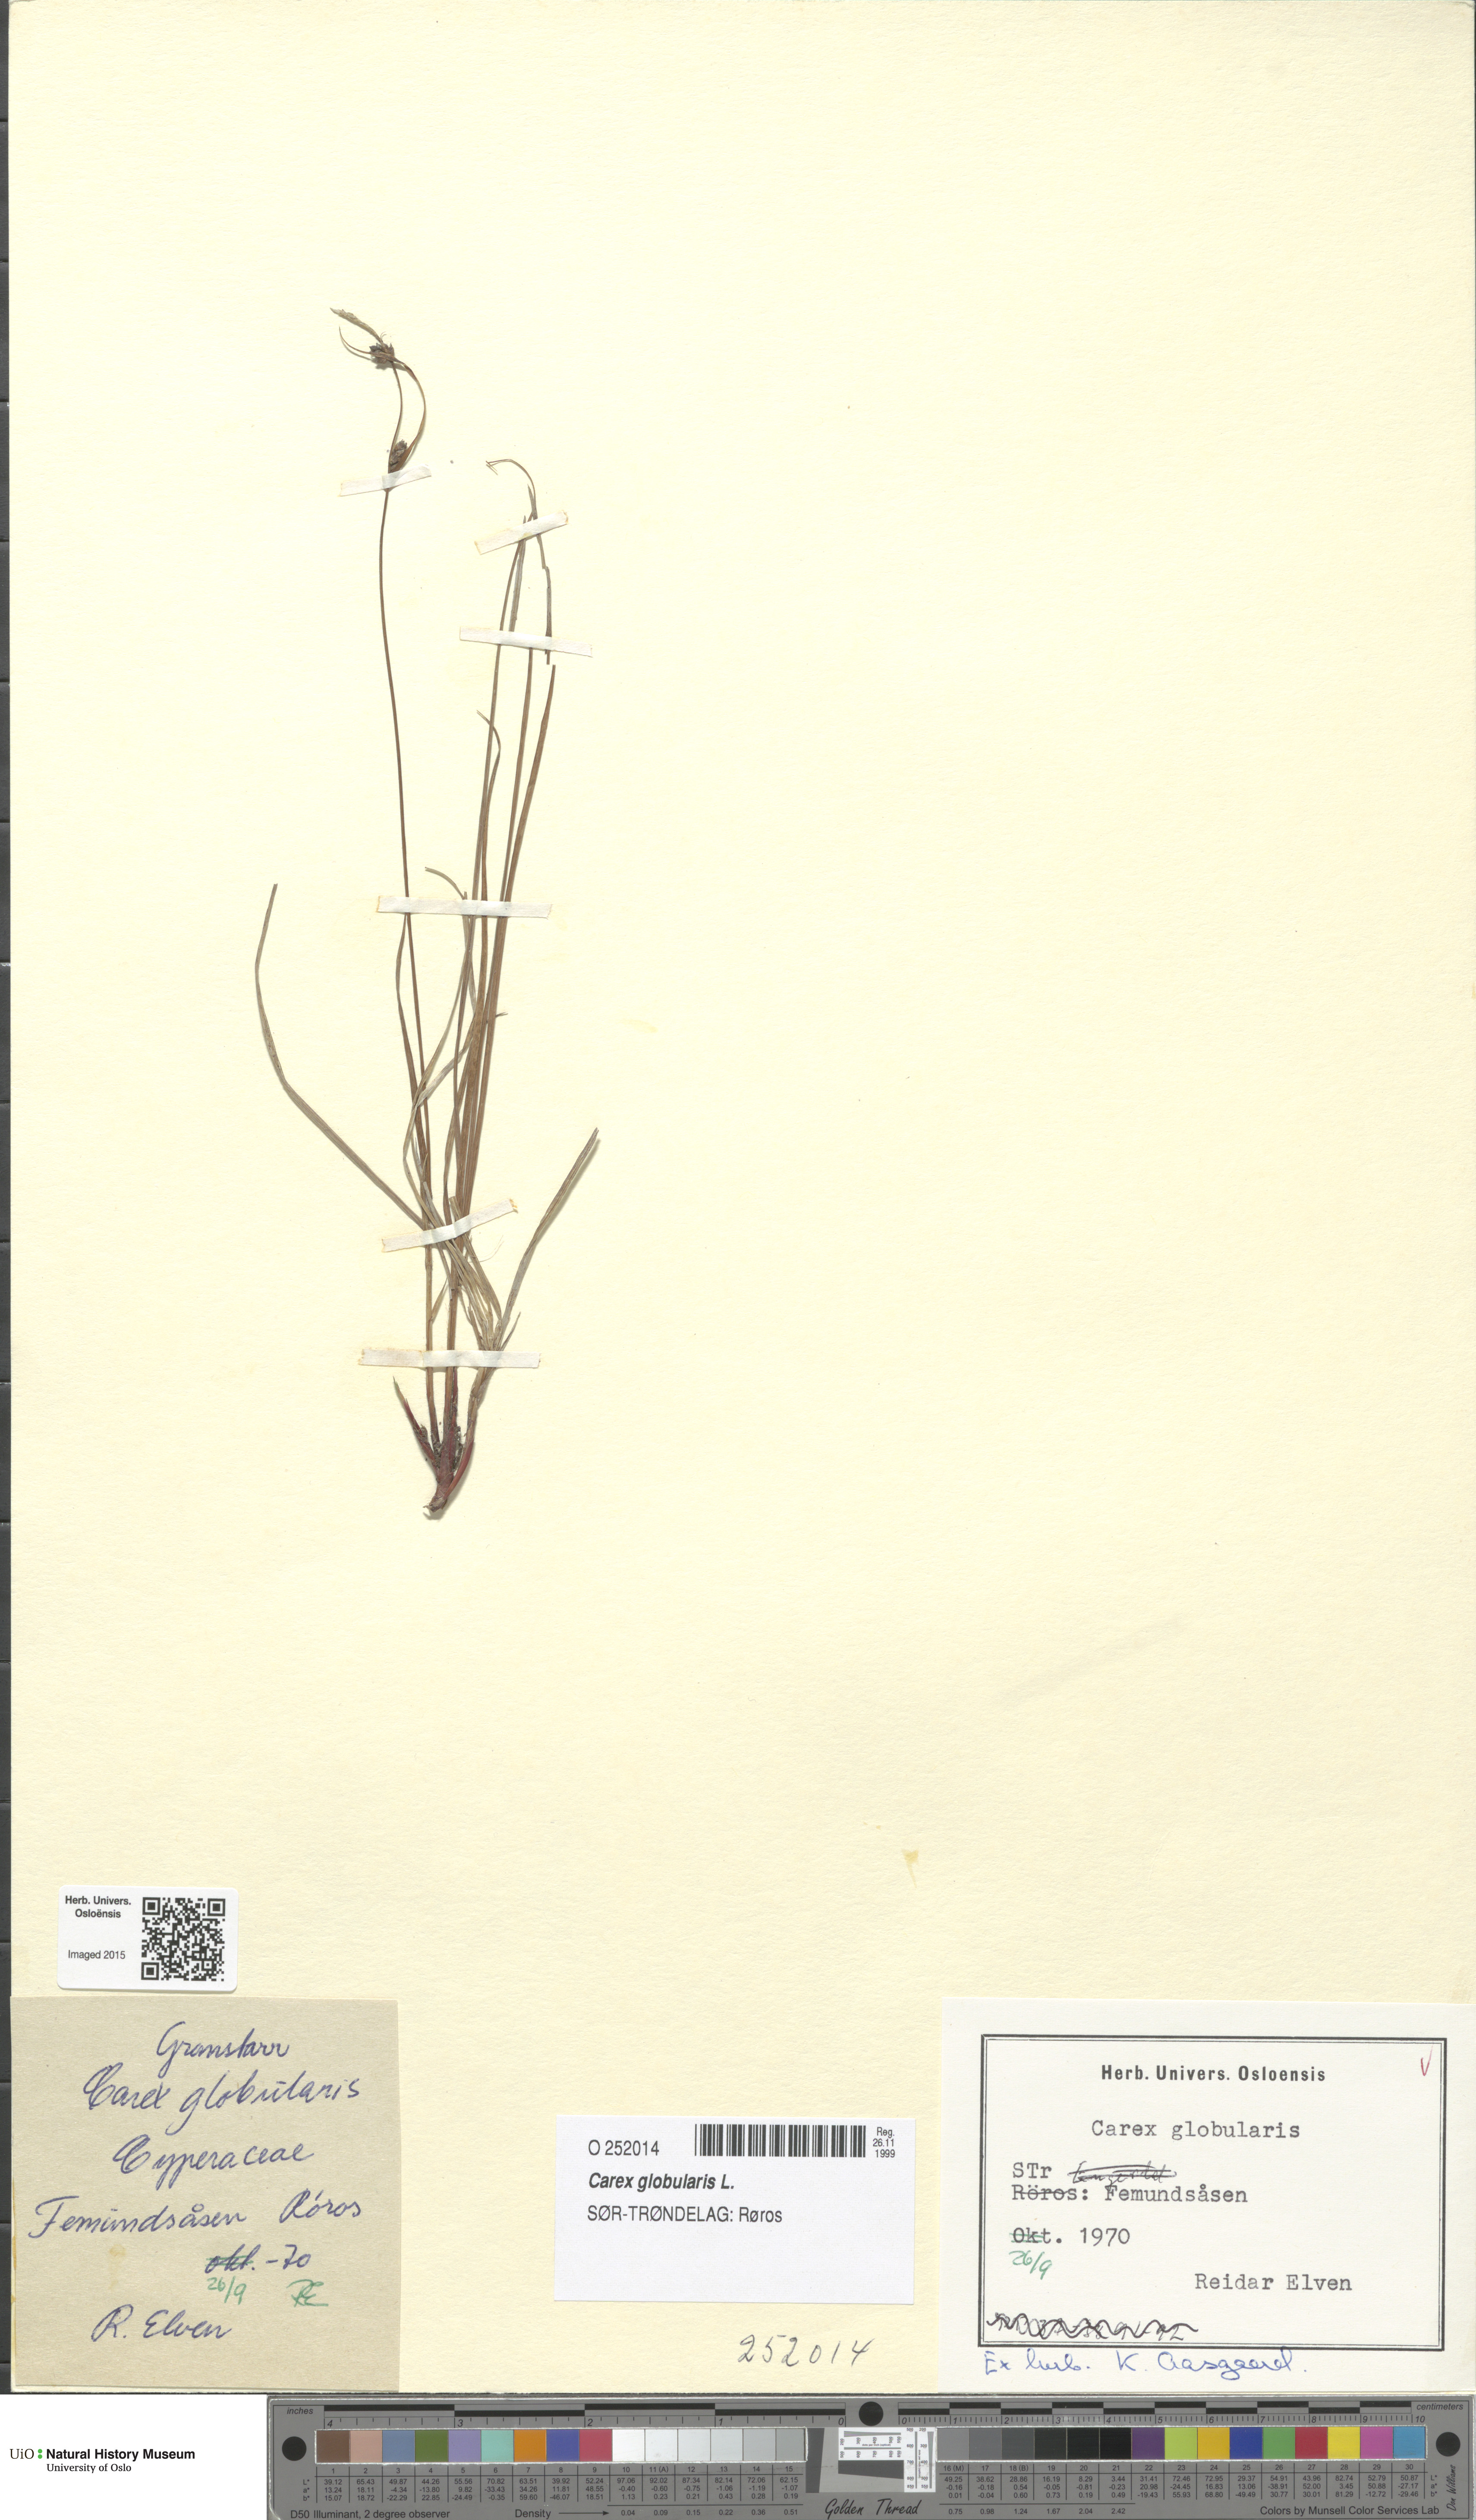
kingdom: Plantae
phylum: Tracheophyta
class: Liliopsida
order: Poales
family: Cyperaceae
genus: Carex
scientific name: Carex globularis
